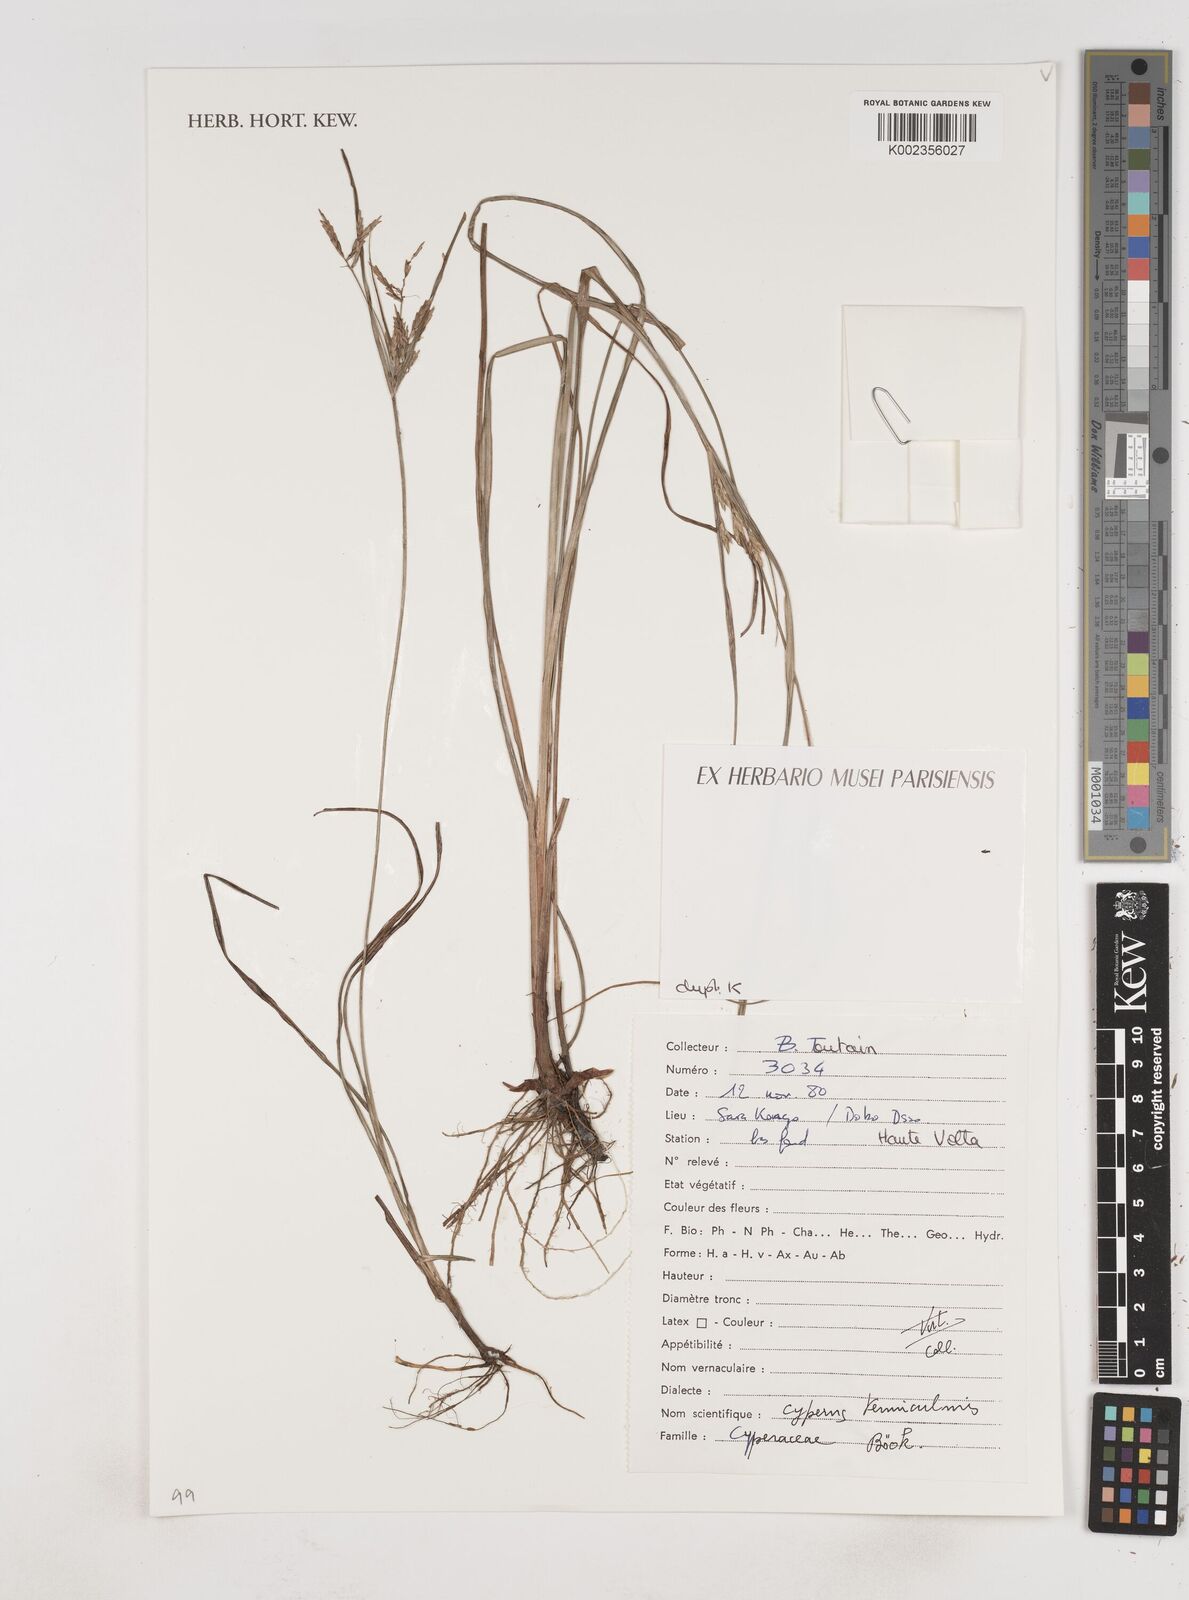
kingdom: Plantae
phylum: Tracheophyta
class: Liliopsida
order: Poales
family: Cyperaceae
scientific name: Cyperaceae
